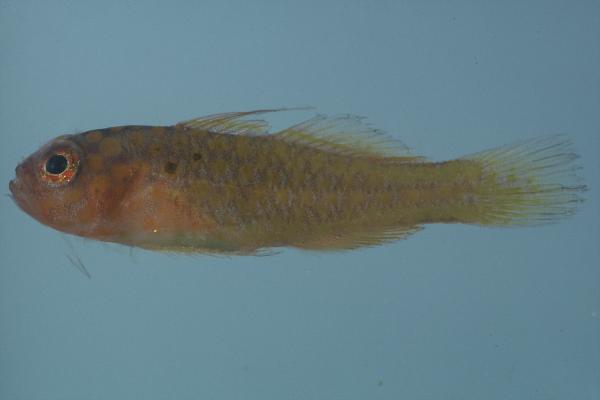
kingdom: Animalia
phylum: Chordata
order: Perciformes
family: Gobiidae
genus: Trimma
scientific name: Trimma flammeum
